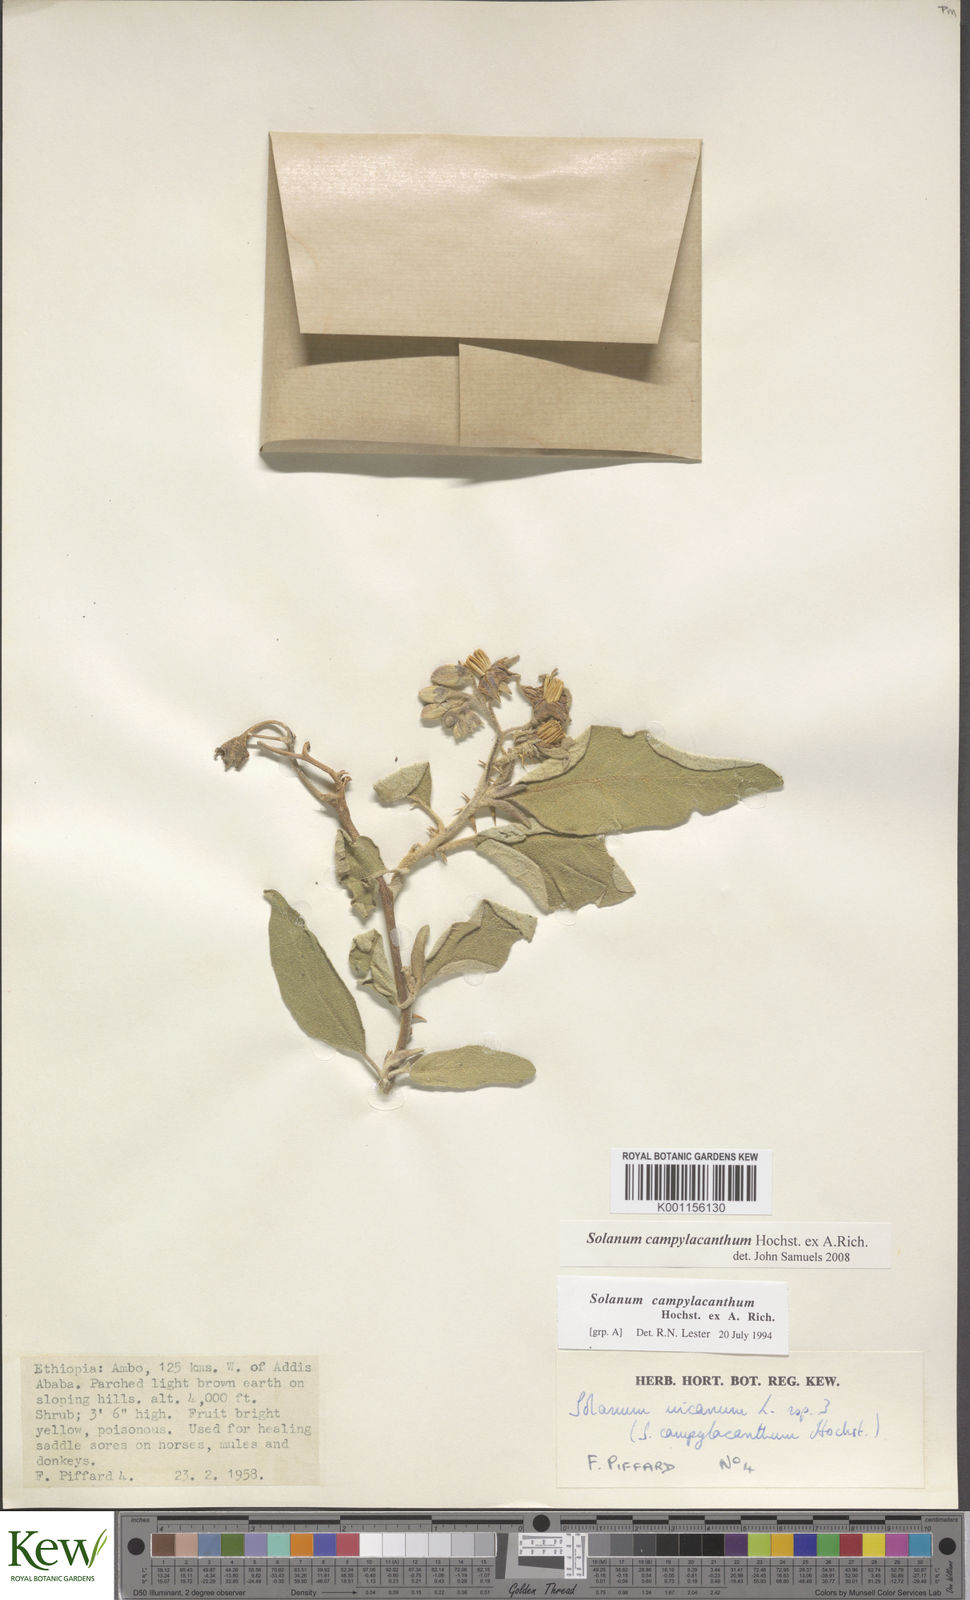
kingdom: Plantae
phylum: Tracheophyta
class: Magnoliopsida
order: Solanales
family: Solanaceae
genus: Solanum
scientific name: Solanum campylacanthum
